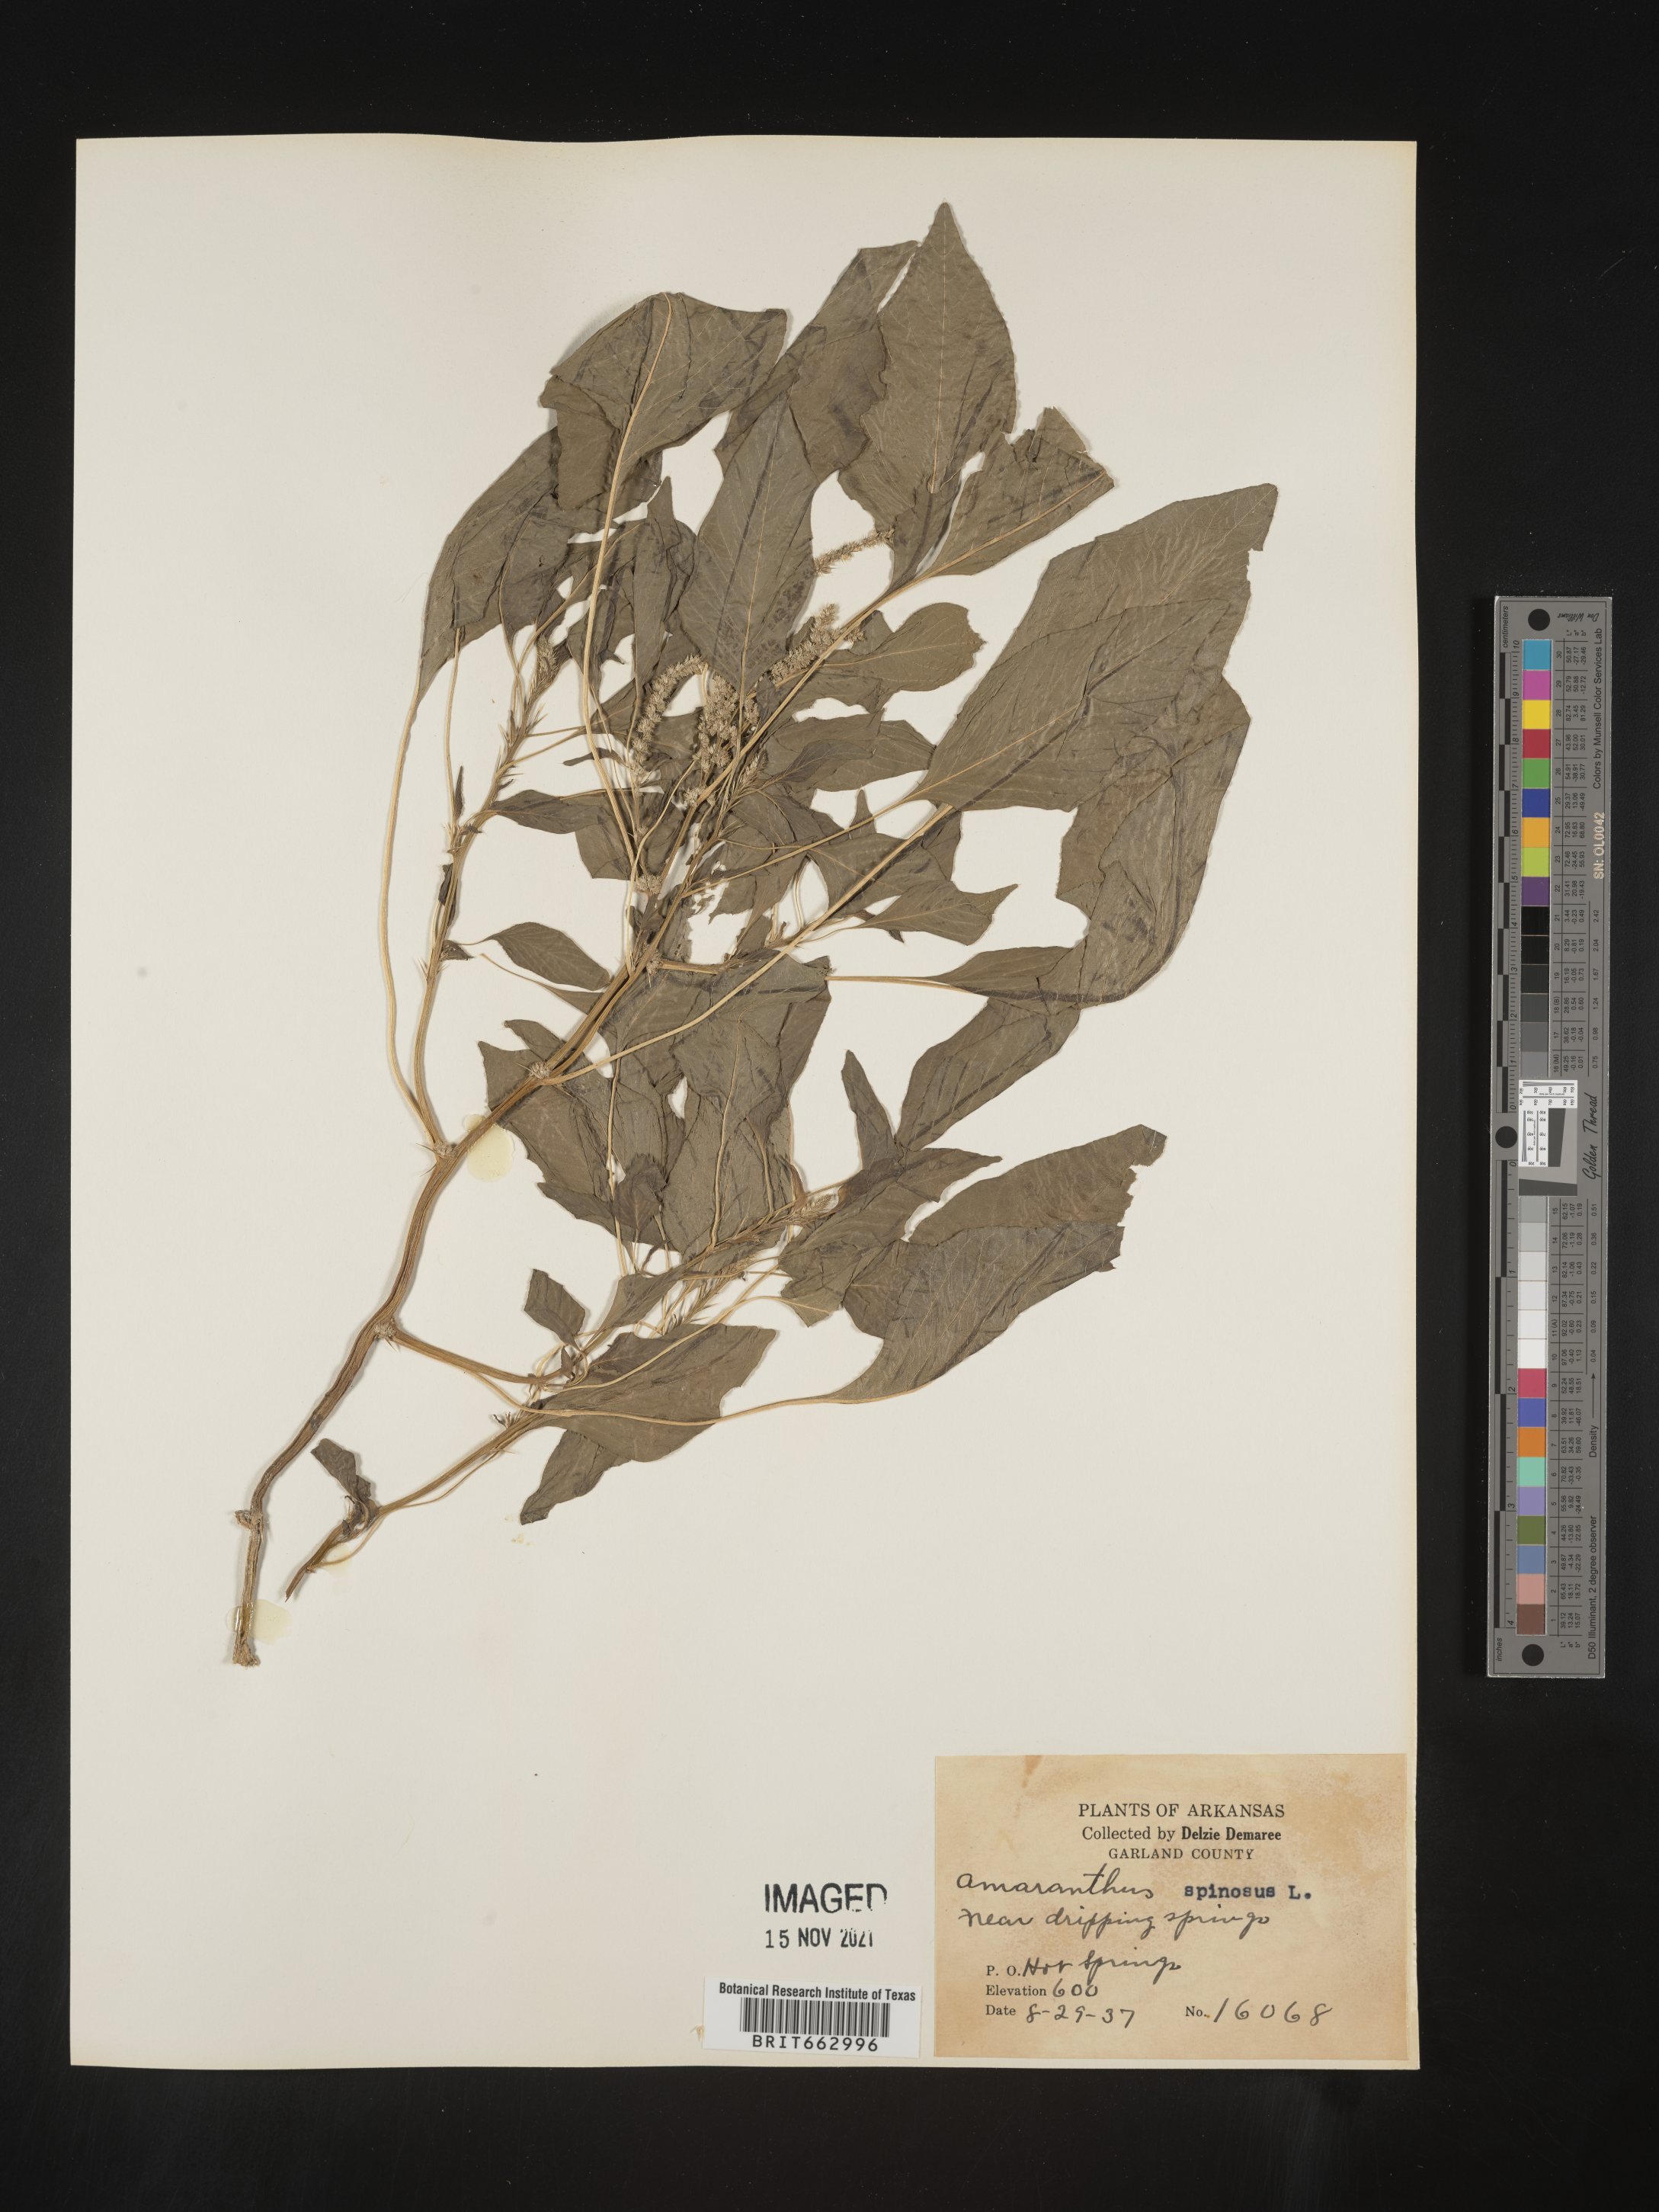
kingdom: Plantae
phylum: Tracheophyta
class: Magnoliopsida
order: Caryophyllales
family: Amaranthaceae
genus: Amaranthus
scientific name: Amaranthus spinosus
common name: Spiny amaranth
